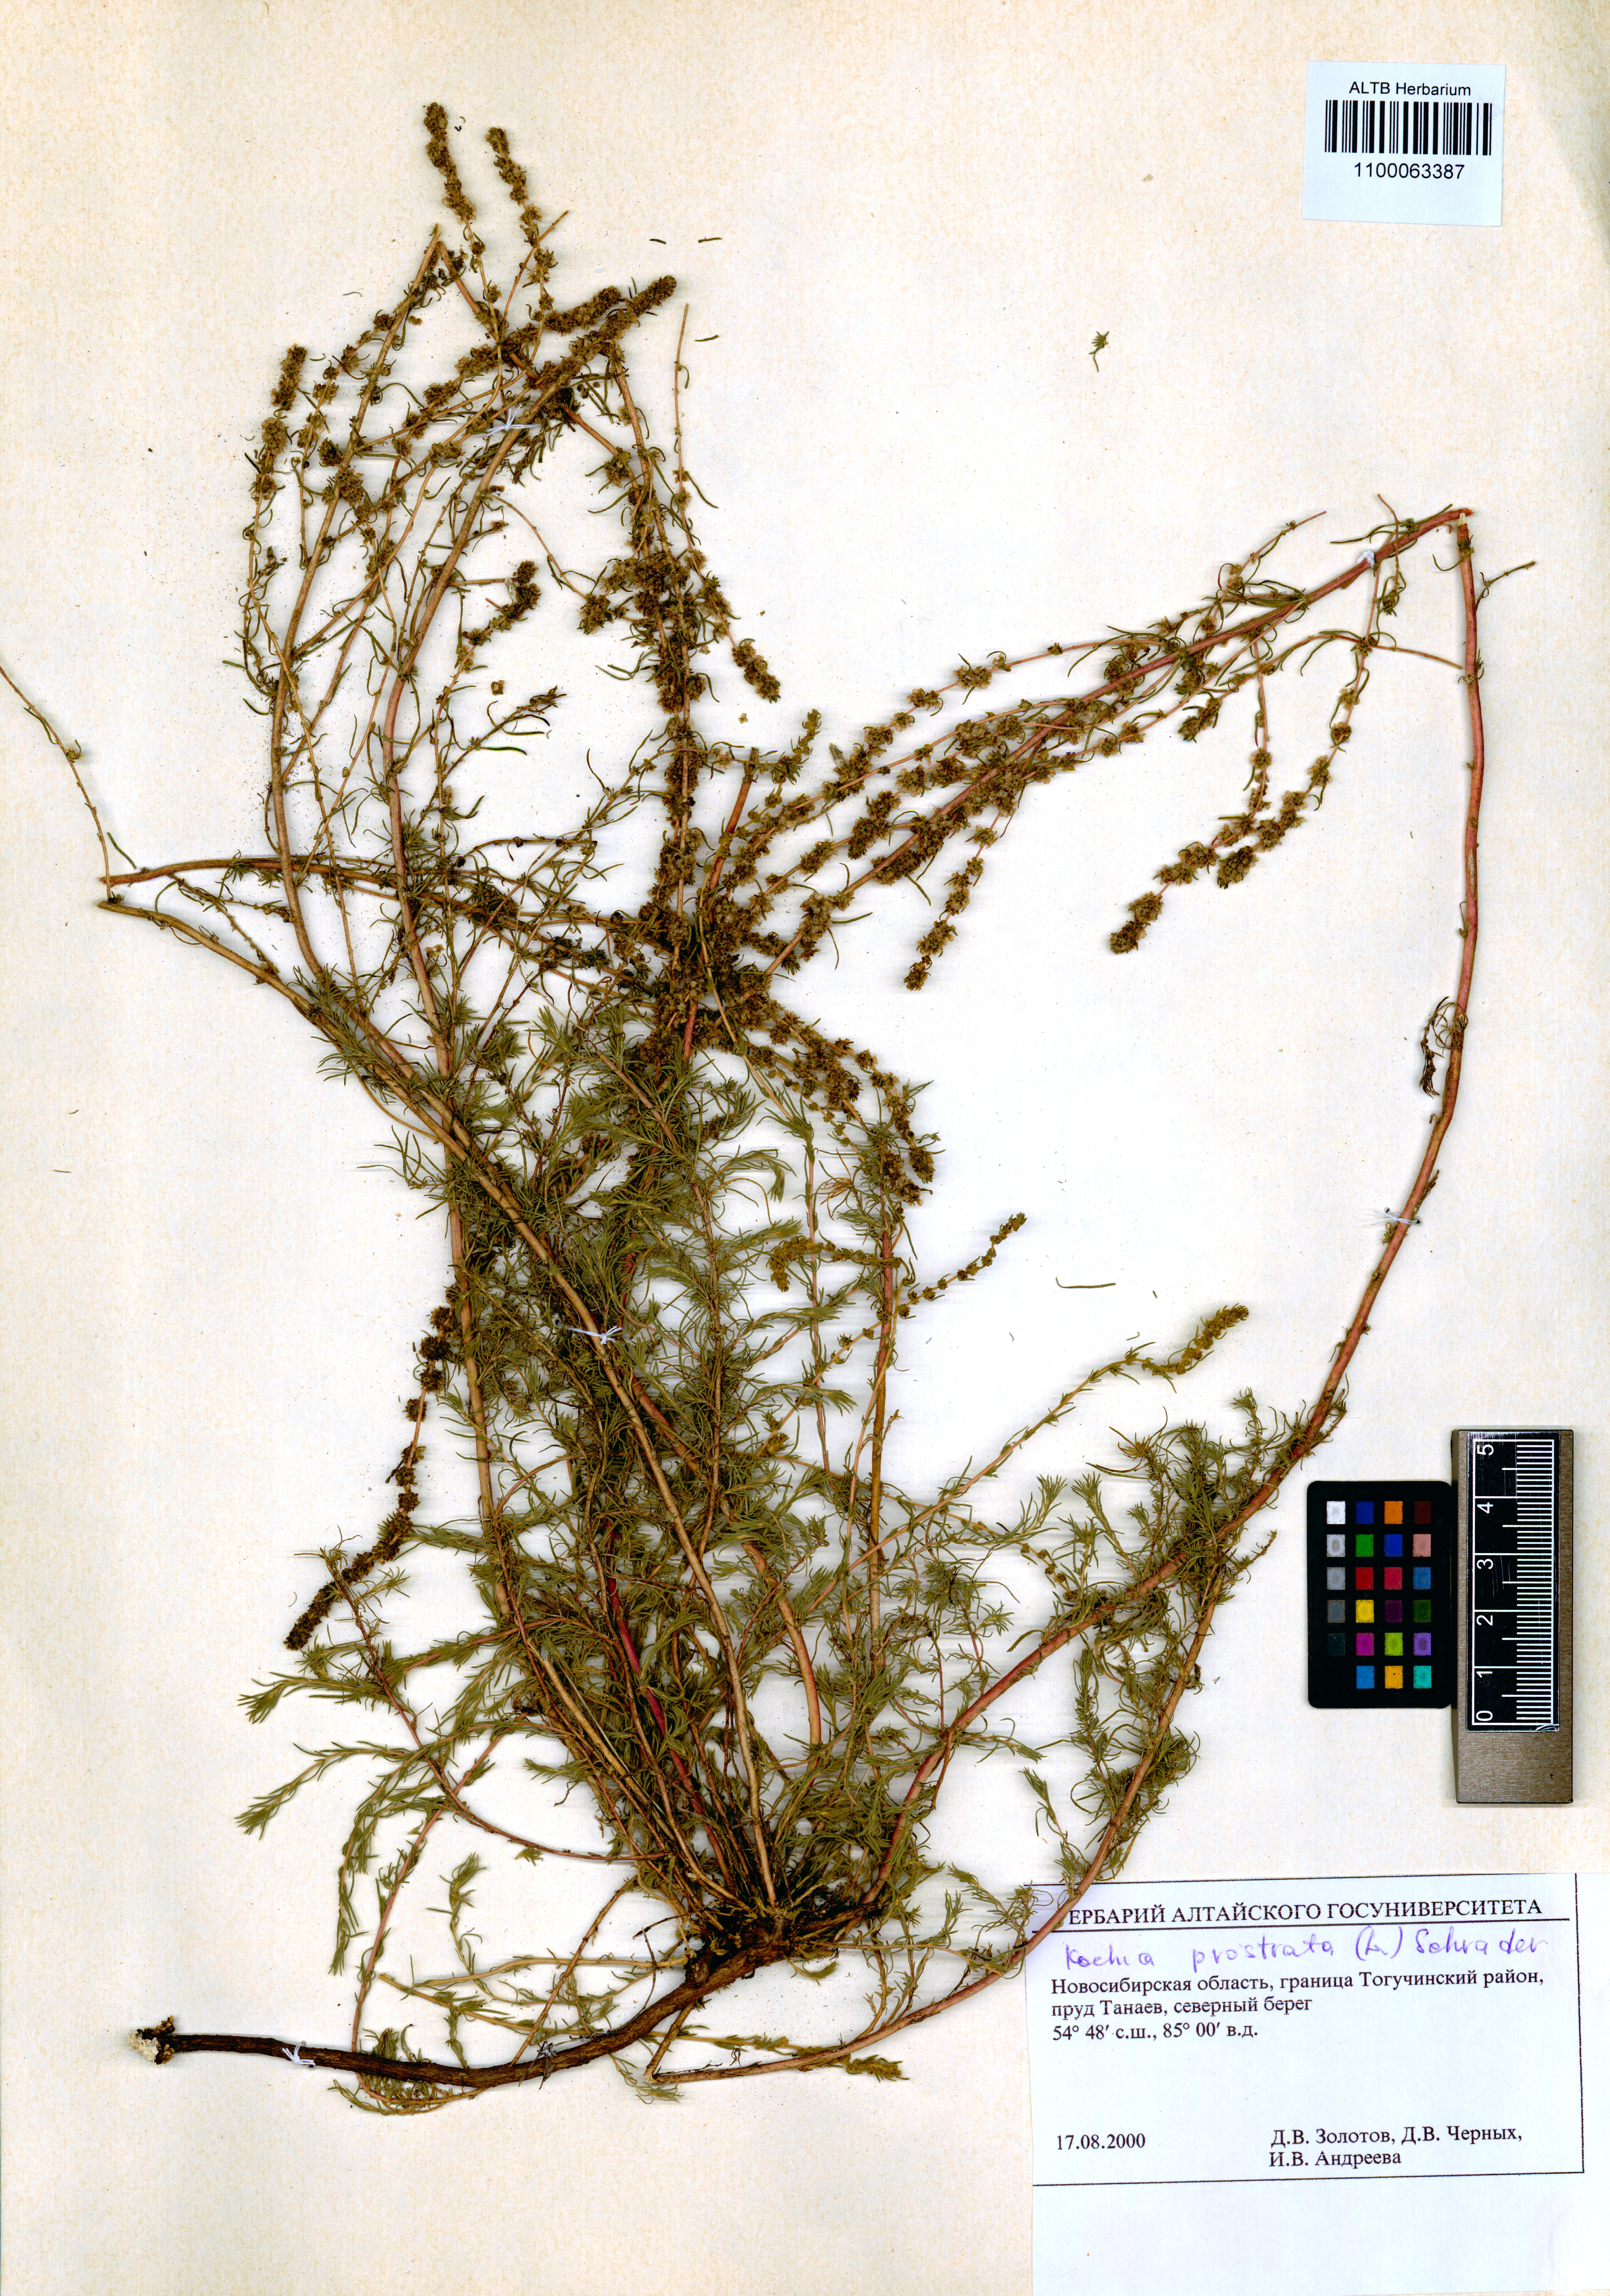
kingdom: Plantae
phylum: Tracheophyta
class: Magnoliopsida
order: Caryophyllales
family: Amaranthaceae
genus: Bassia
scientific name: Bassia prostrata
